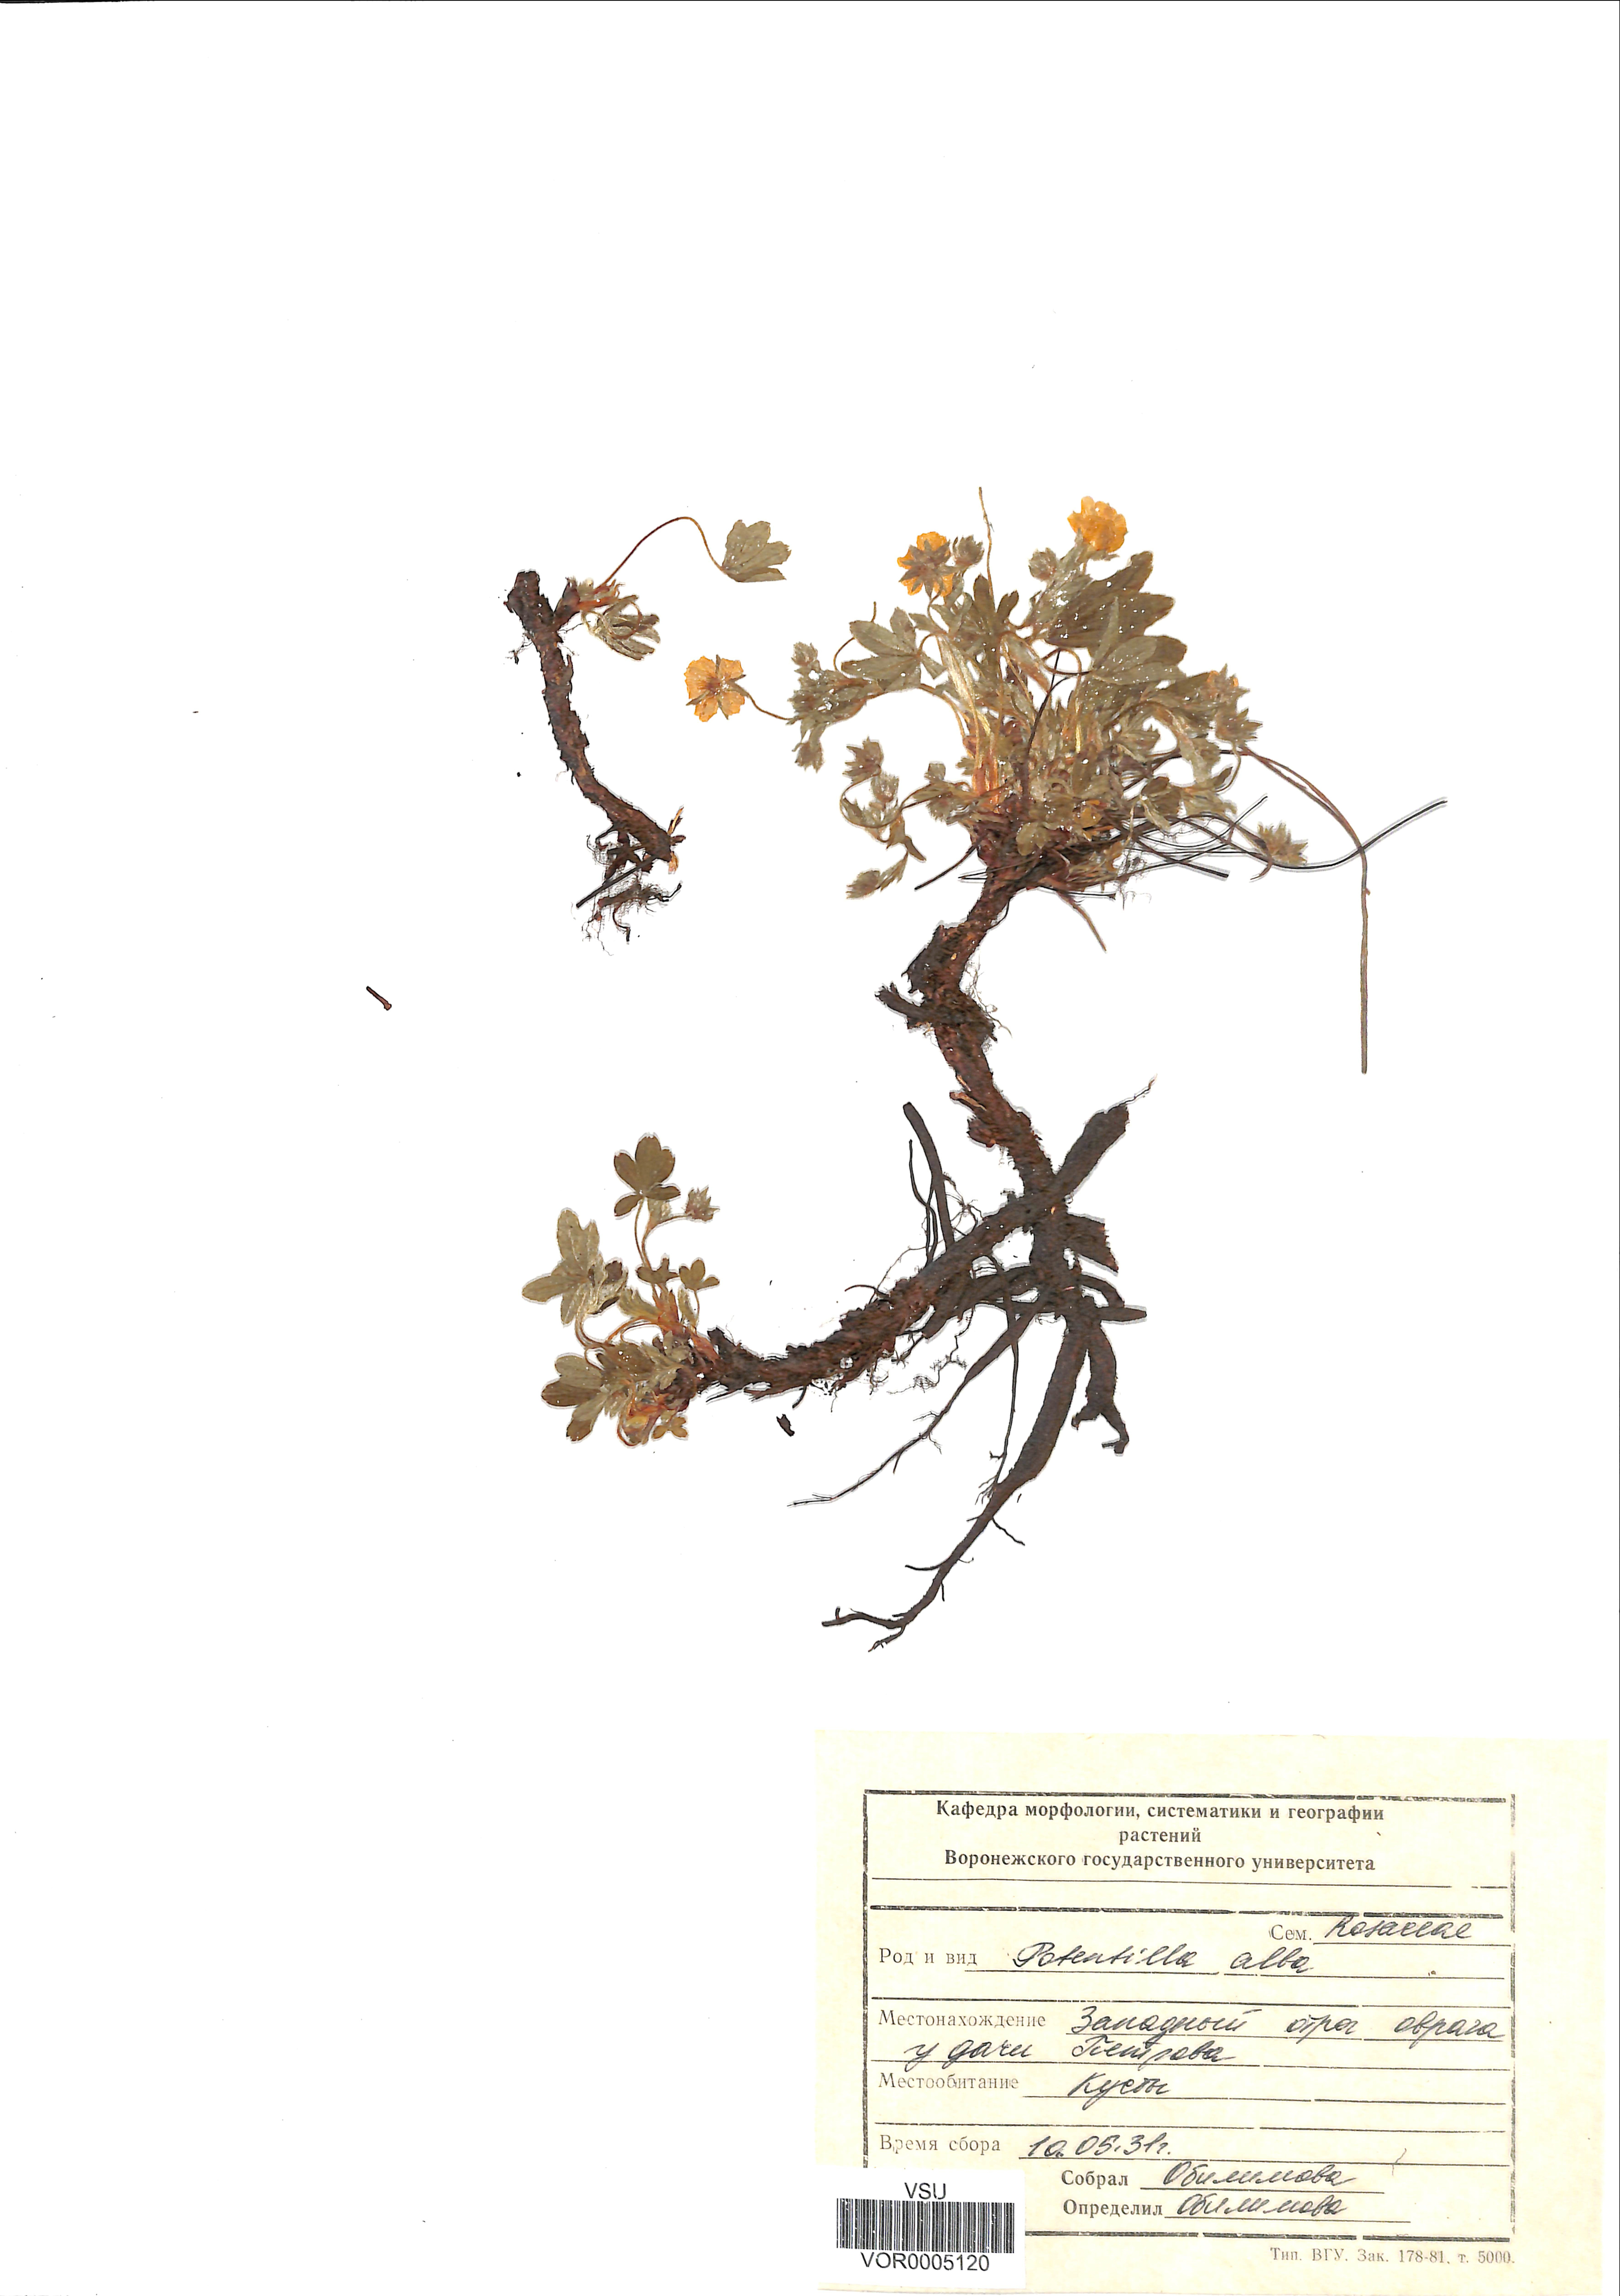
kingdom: Plantae
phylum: Tracheophyta
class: Magnoliopsida
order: Rosales
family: Rosaceae
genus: Potentilla
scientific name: Potentilla alba
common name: White cinquefoil
